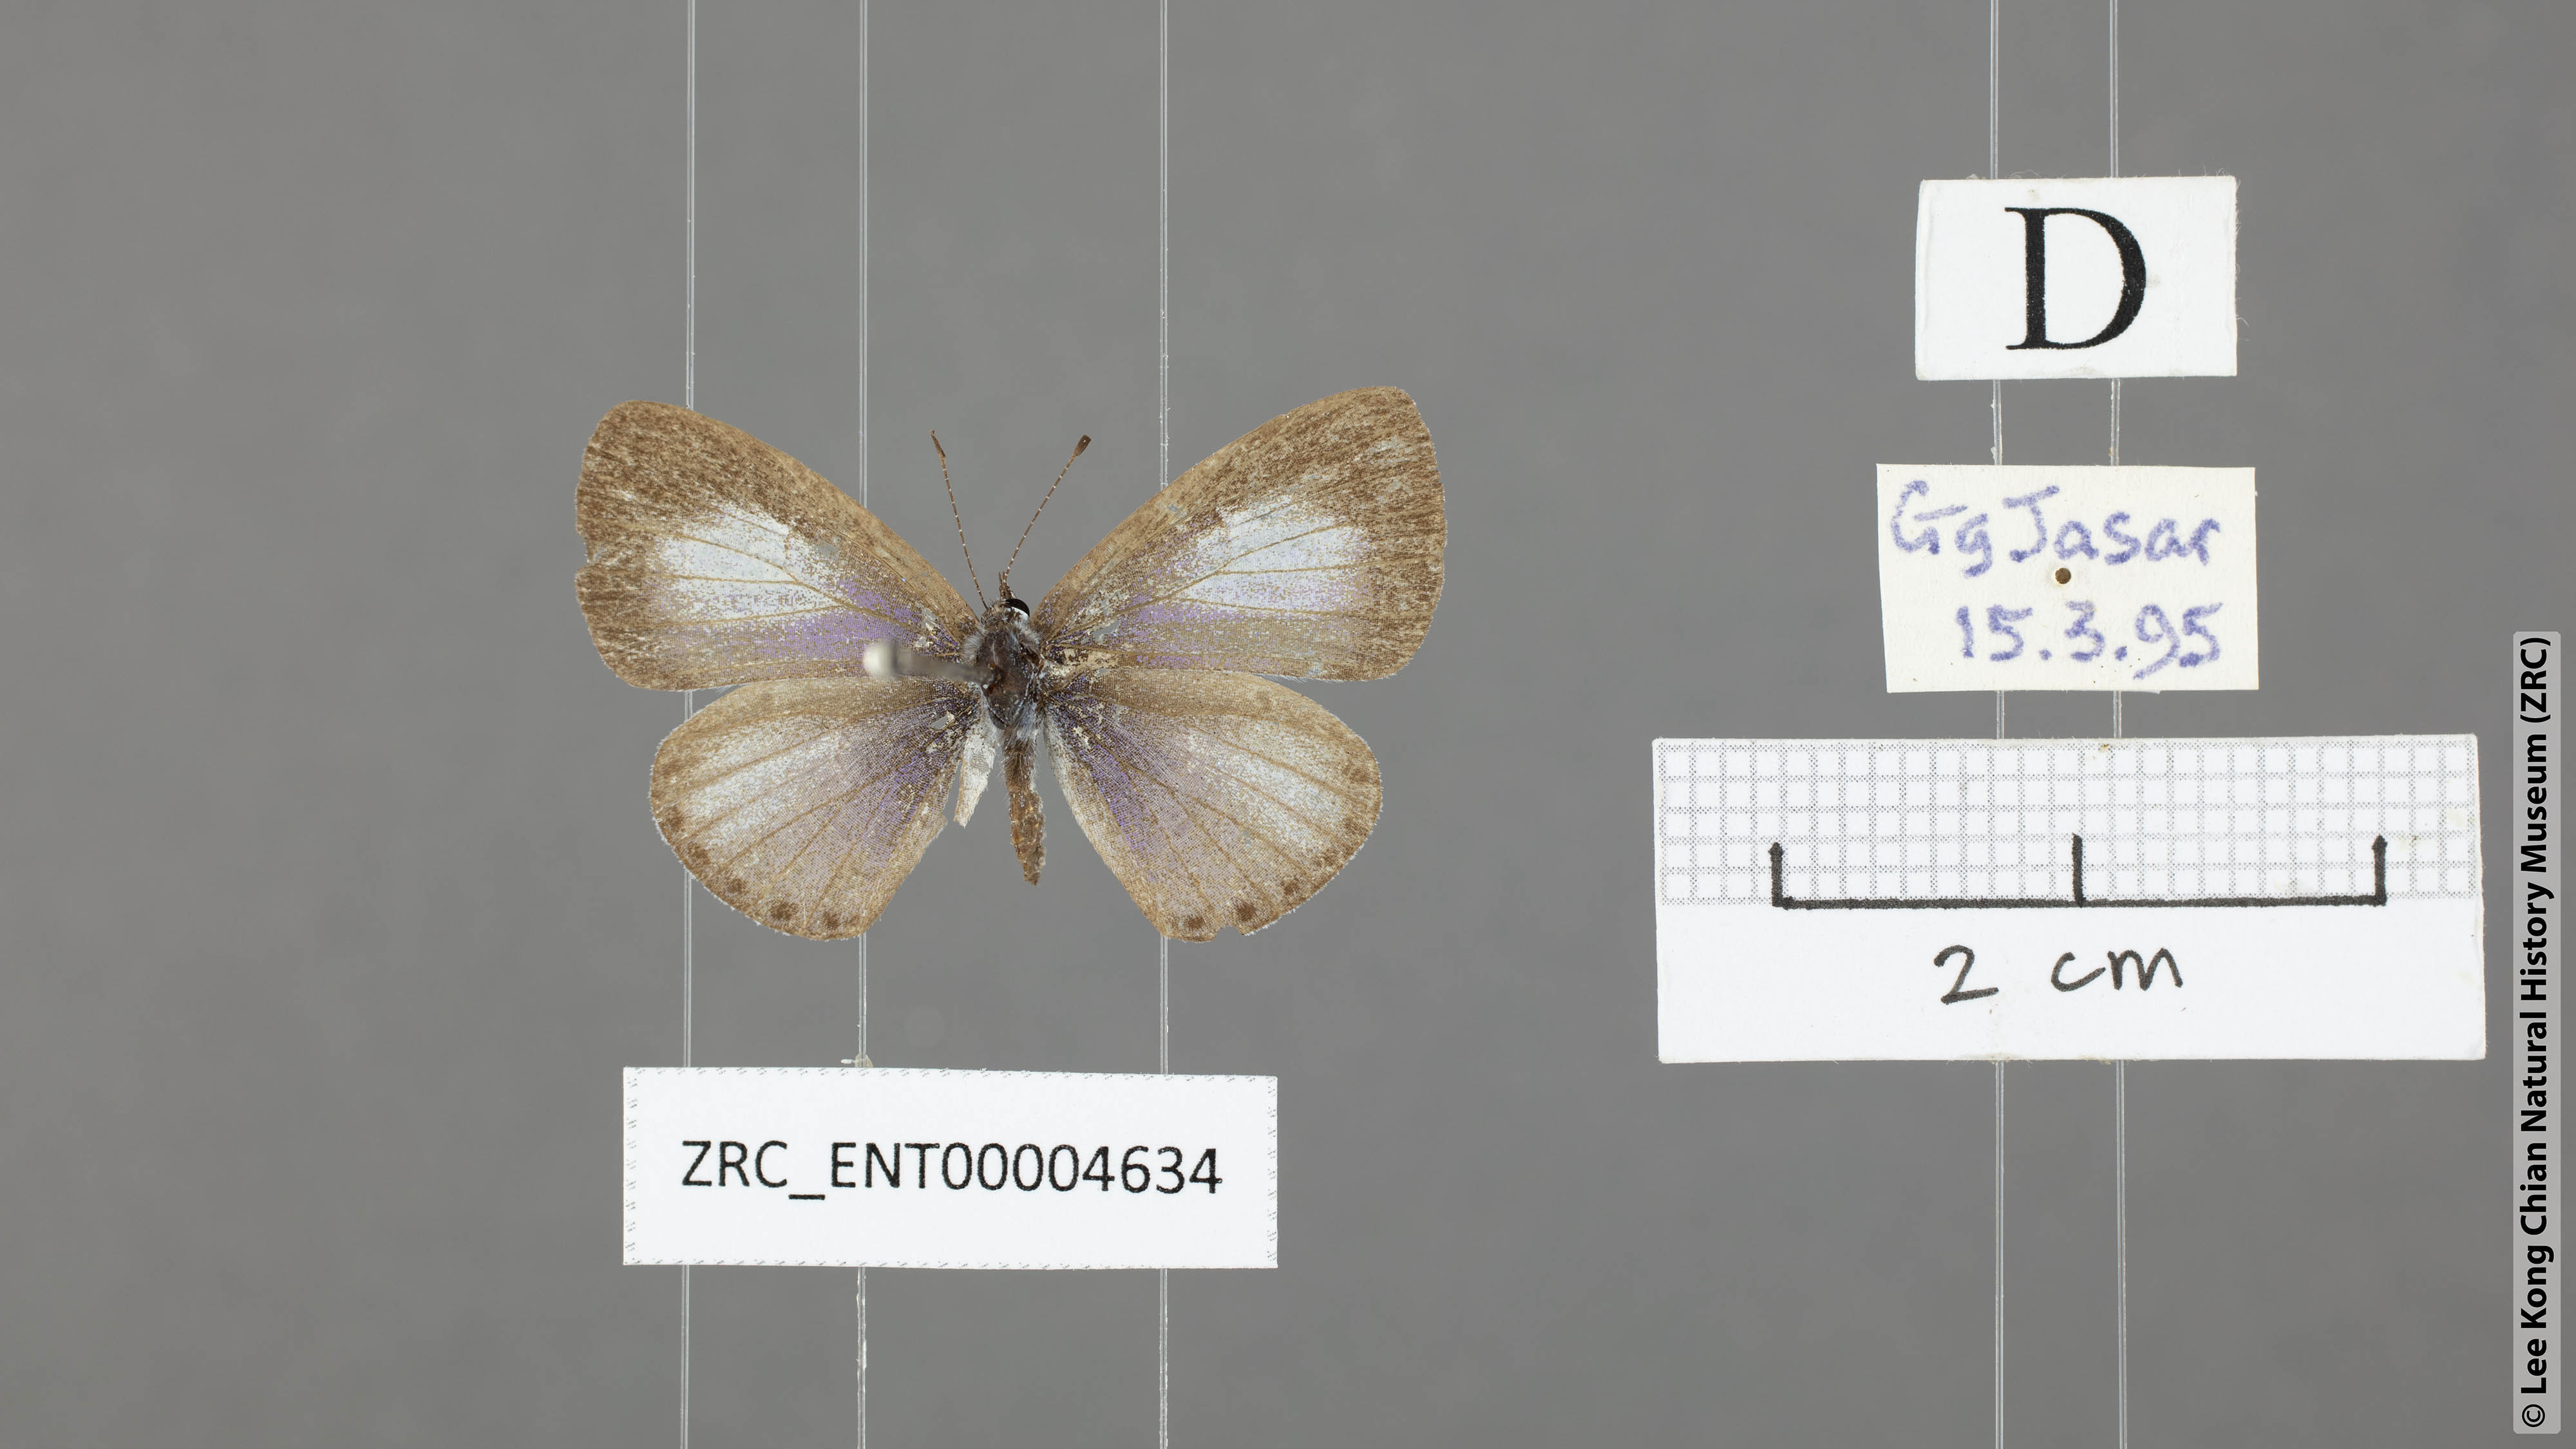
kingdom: Animalia
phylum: Arthropoda
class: Insecta
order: Lepidoptera
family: Lycaenidae
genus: Udara
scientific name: Udara
